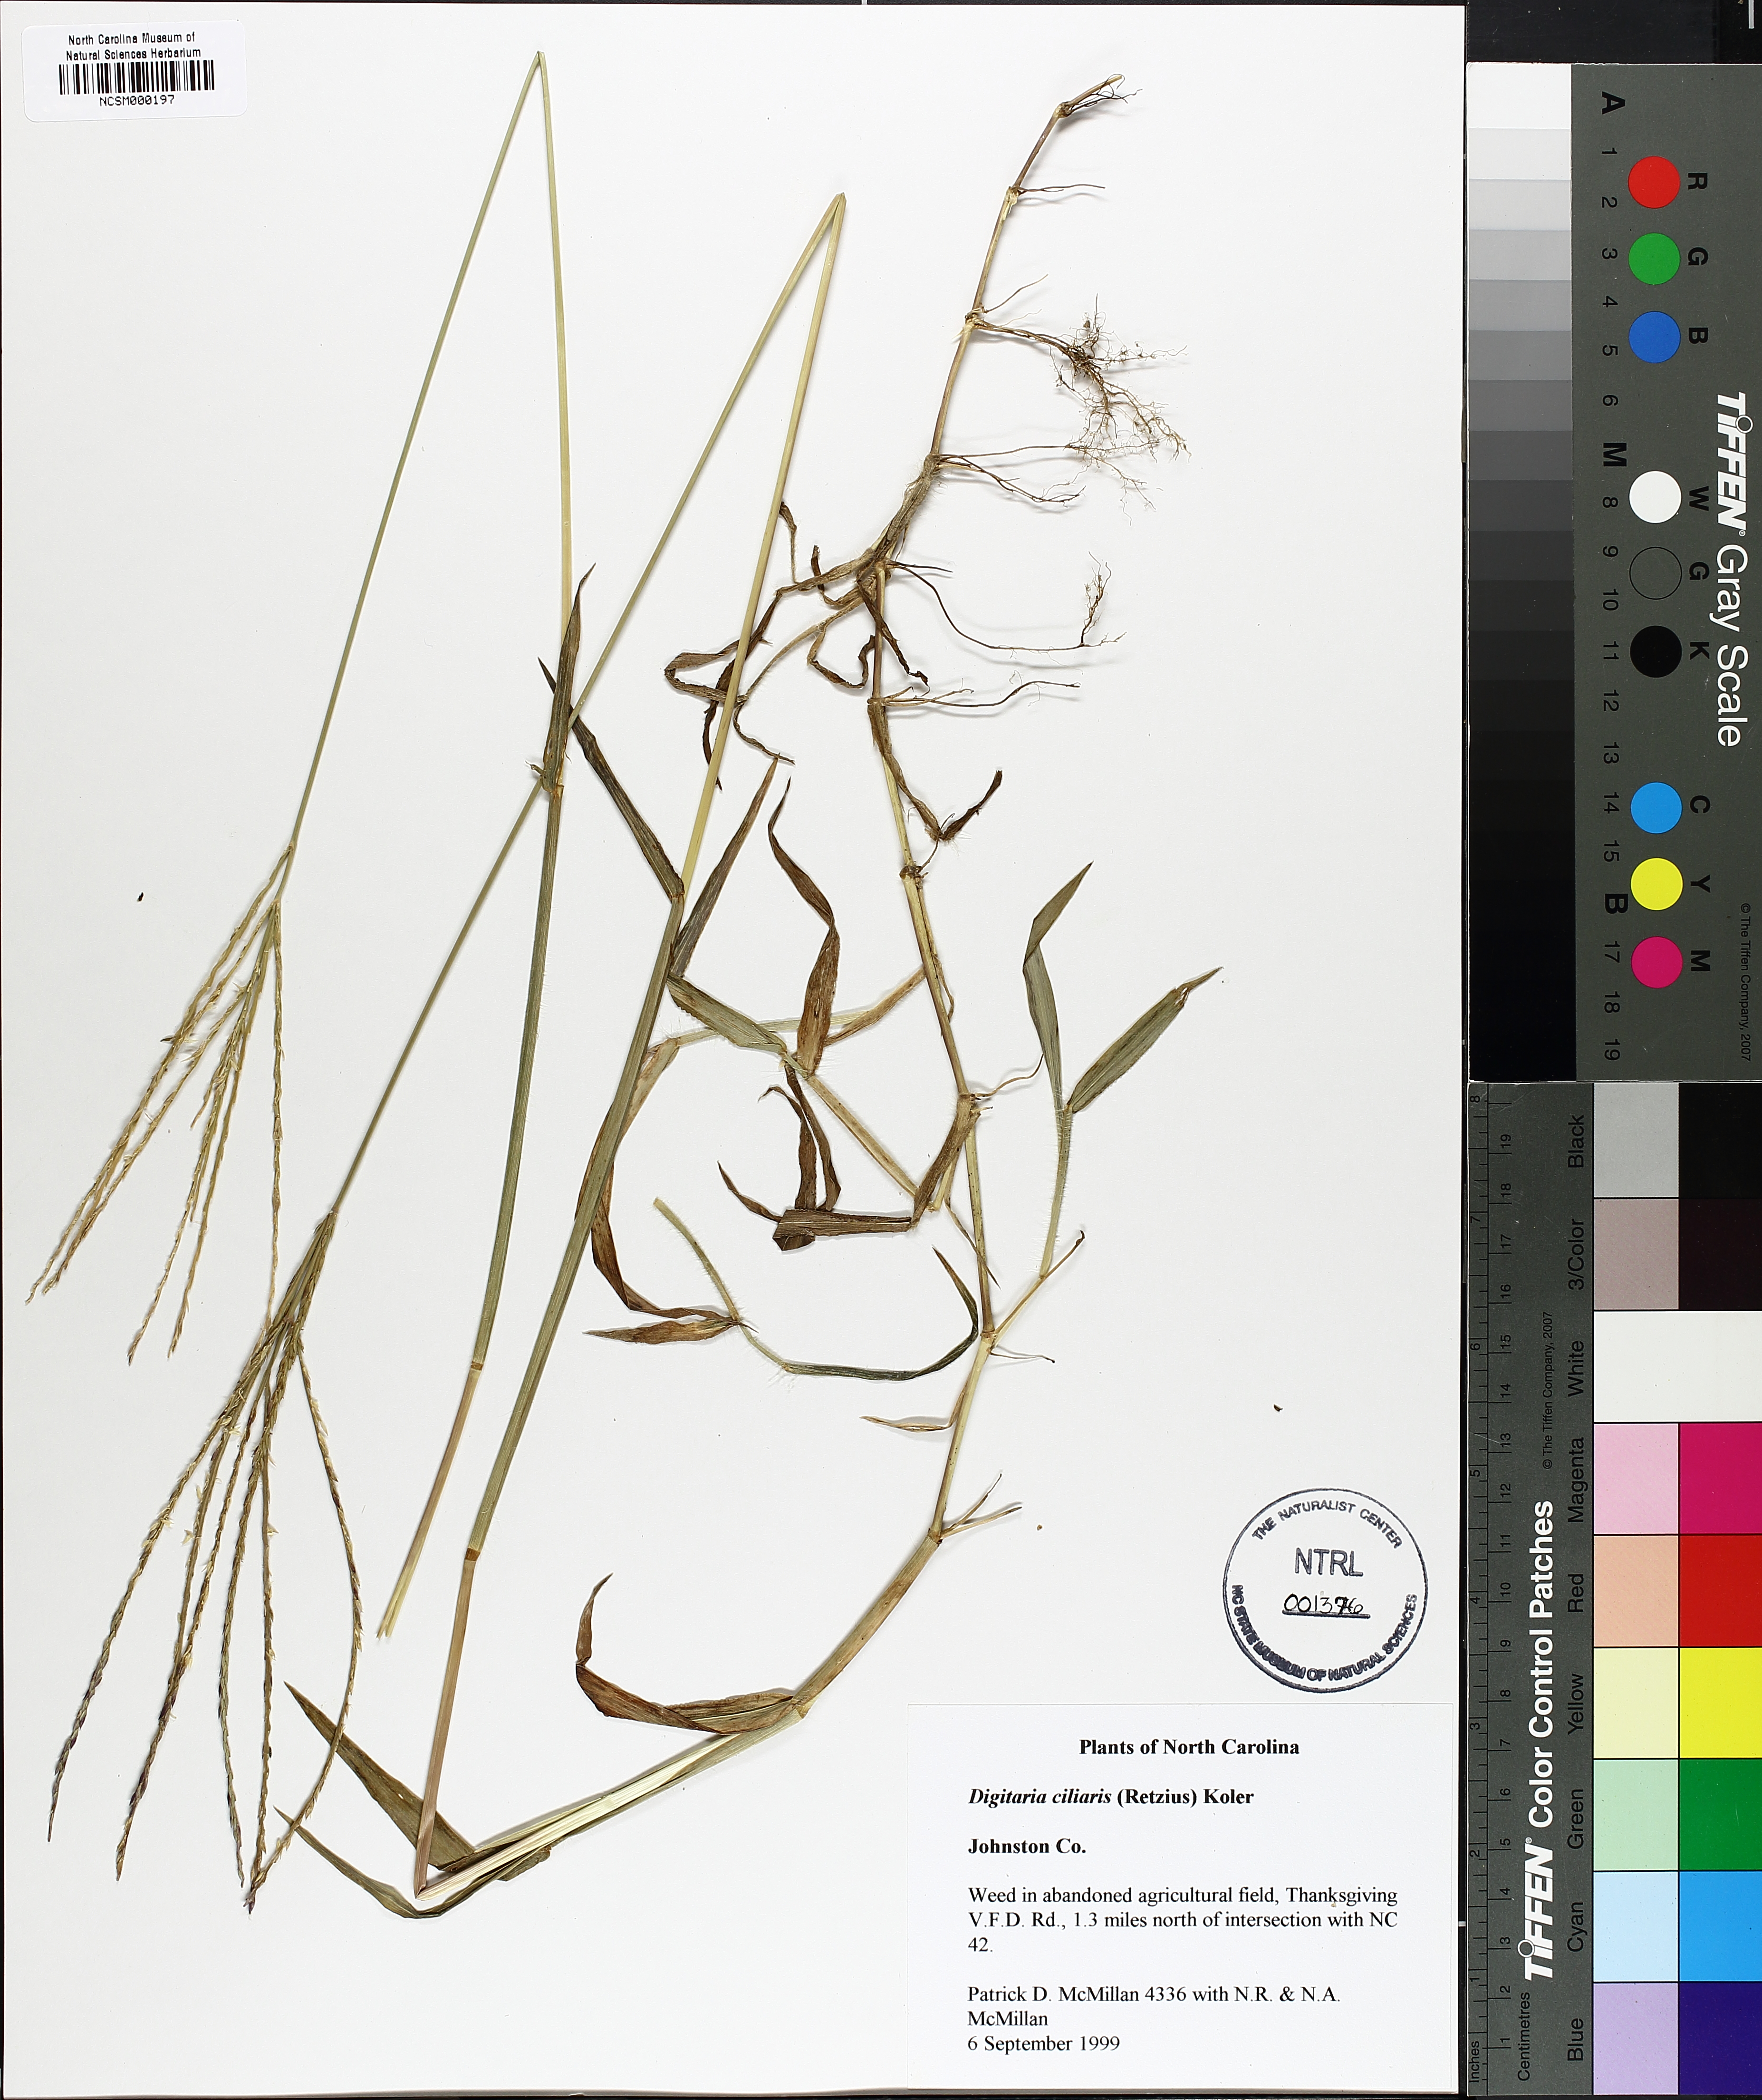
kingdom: Plantae
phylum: Tracheophyta
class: Liliopsida
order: Poales
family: Poaceae
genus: Digitaria
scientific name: Digitaria ciliaris
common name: Tropical finger-grass
